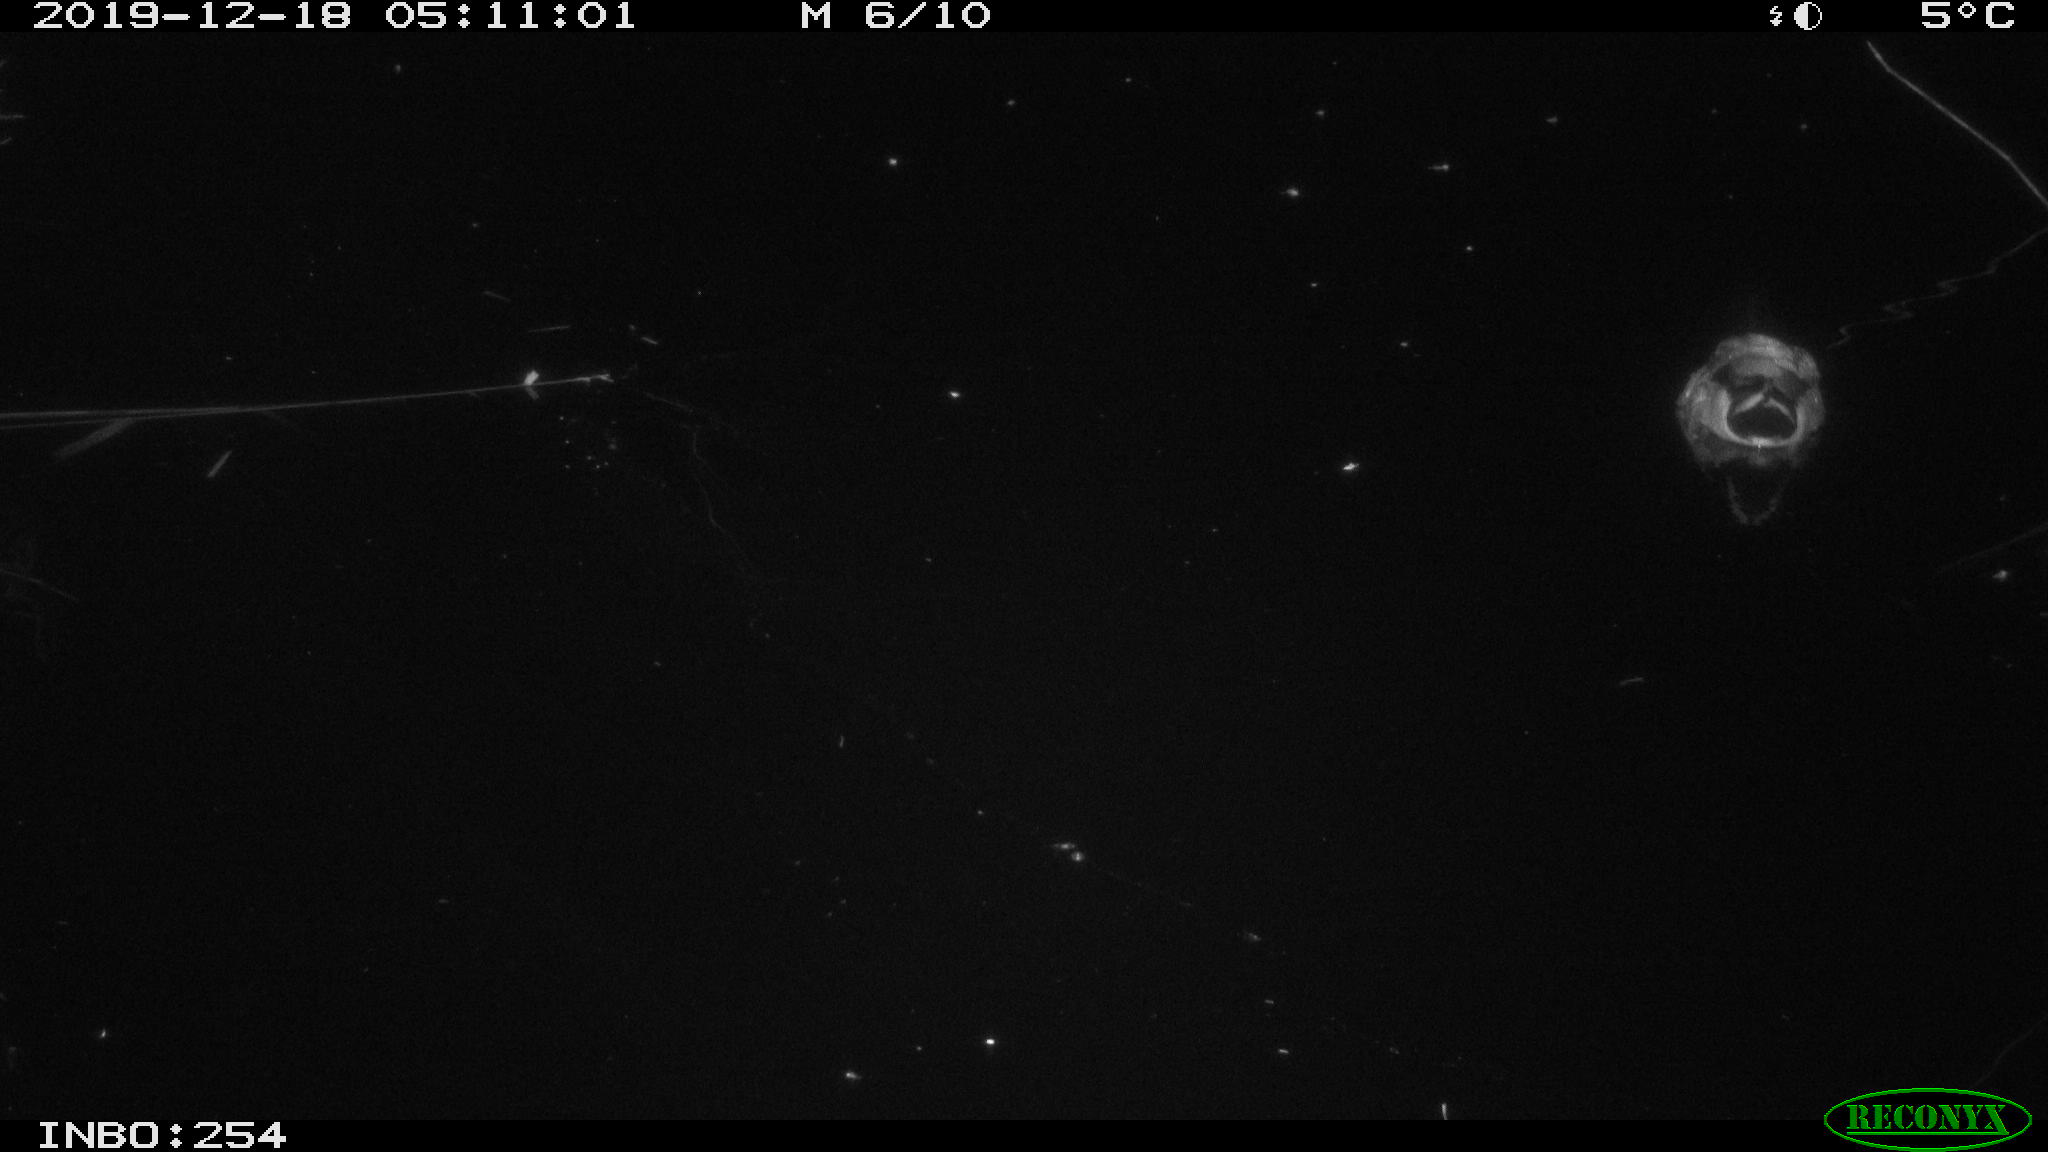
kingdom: Animalia
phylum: Chordata
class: Aves
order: Anseriformes
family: Anatidae
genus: Anas
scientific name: Anas platyrhynchos
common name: Mallard
